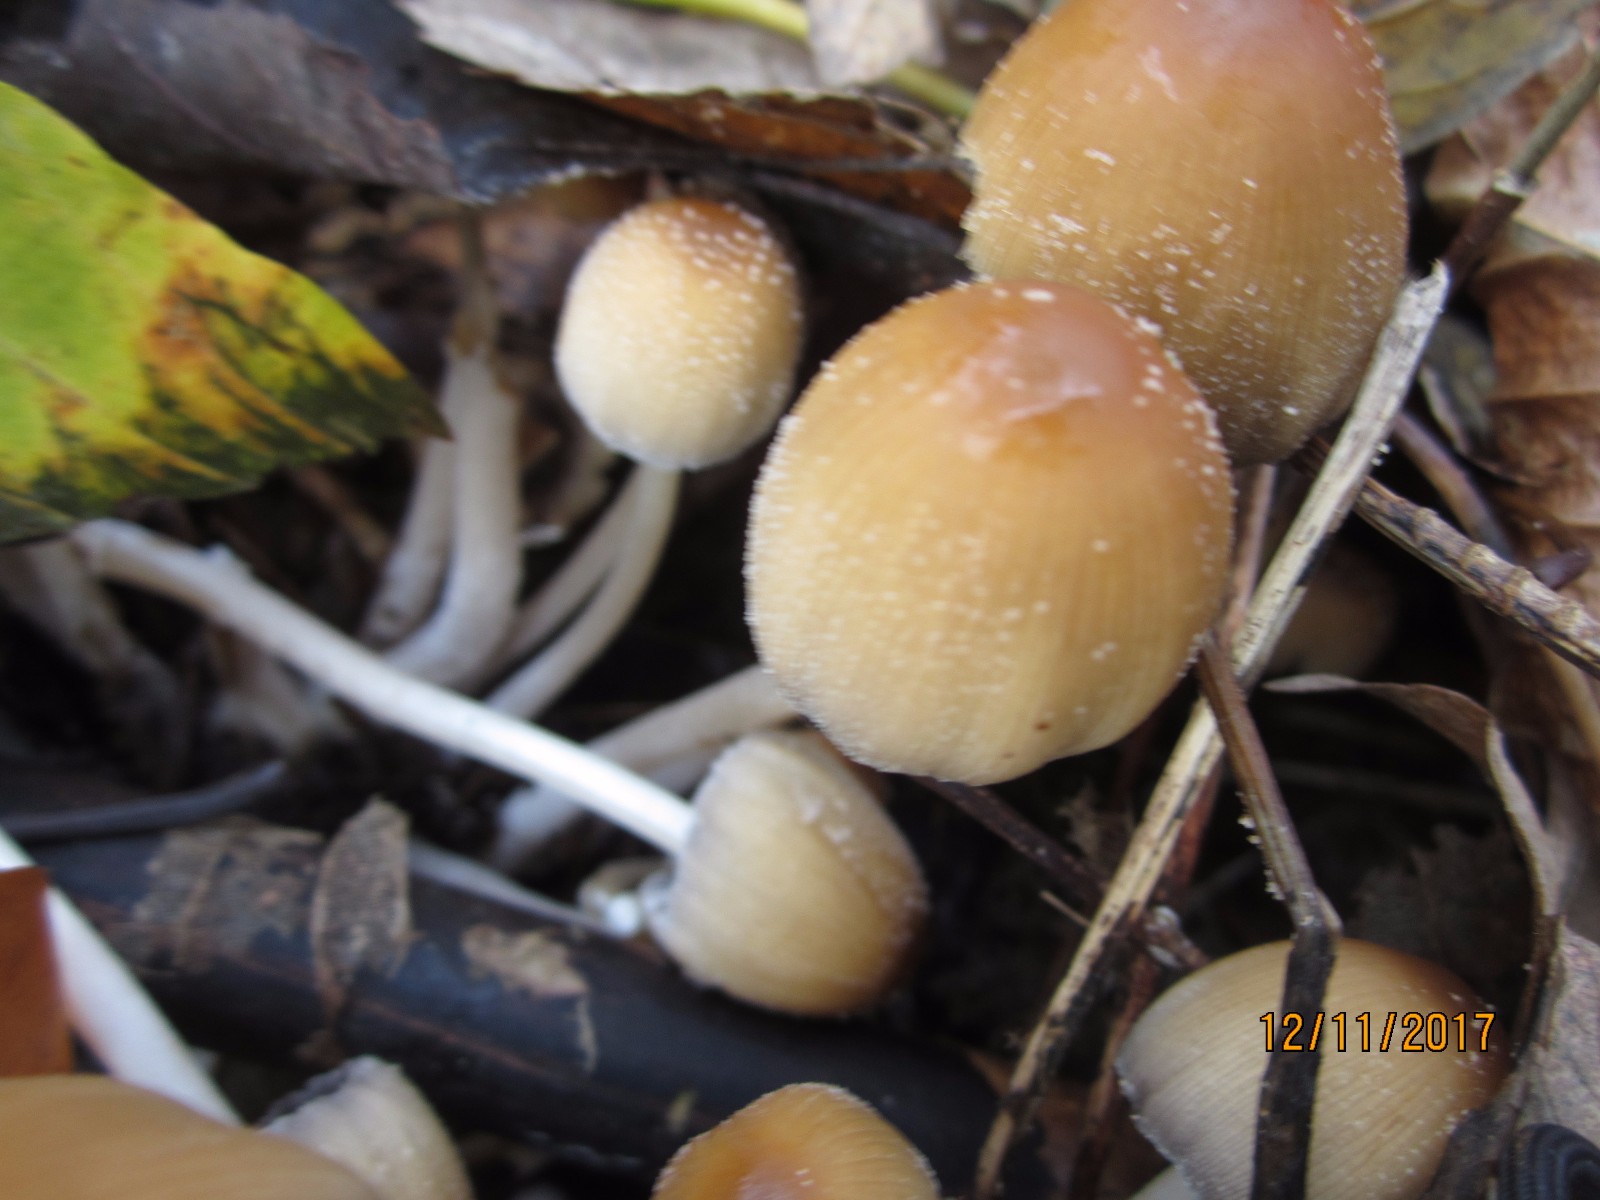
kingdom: Fungi
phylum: Basidiomycota
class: Agaricomycetes
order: Agaricales
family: Psathyrellaceae
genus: Coprinellus
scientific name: Coprinellus micaceus
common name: glimmer-blækhat
